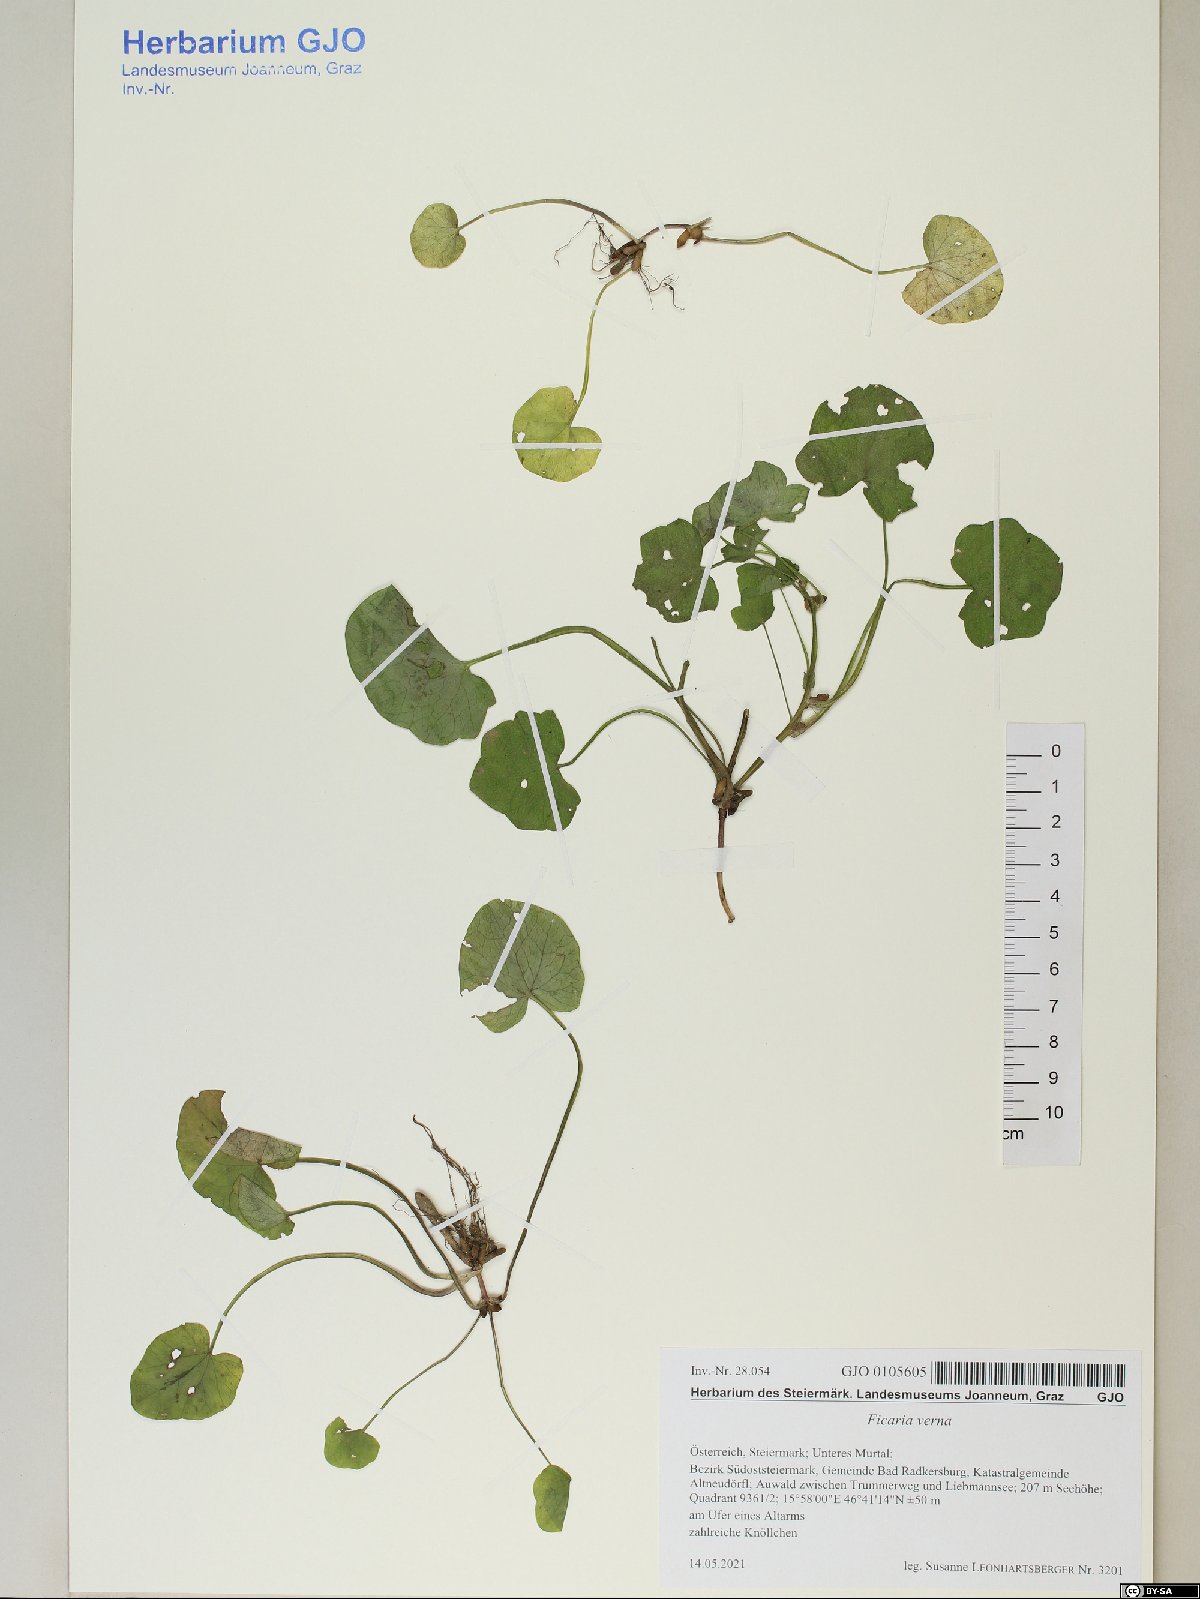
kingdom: Plantae
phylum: Tracheophyta
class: Magnoliopsida
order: Ranunculales
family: Ranunculaceae
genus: Ficaria
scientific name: Ficaria verna
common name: Lesser celandine
